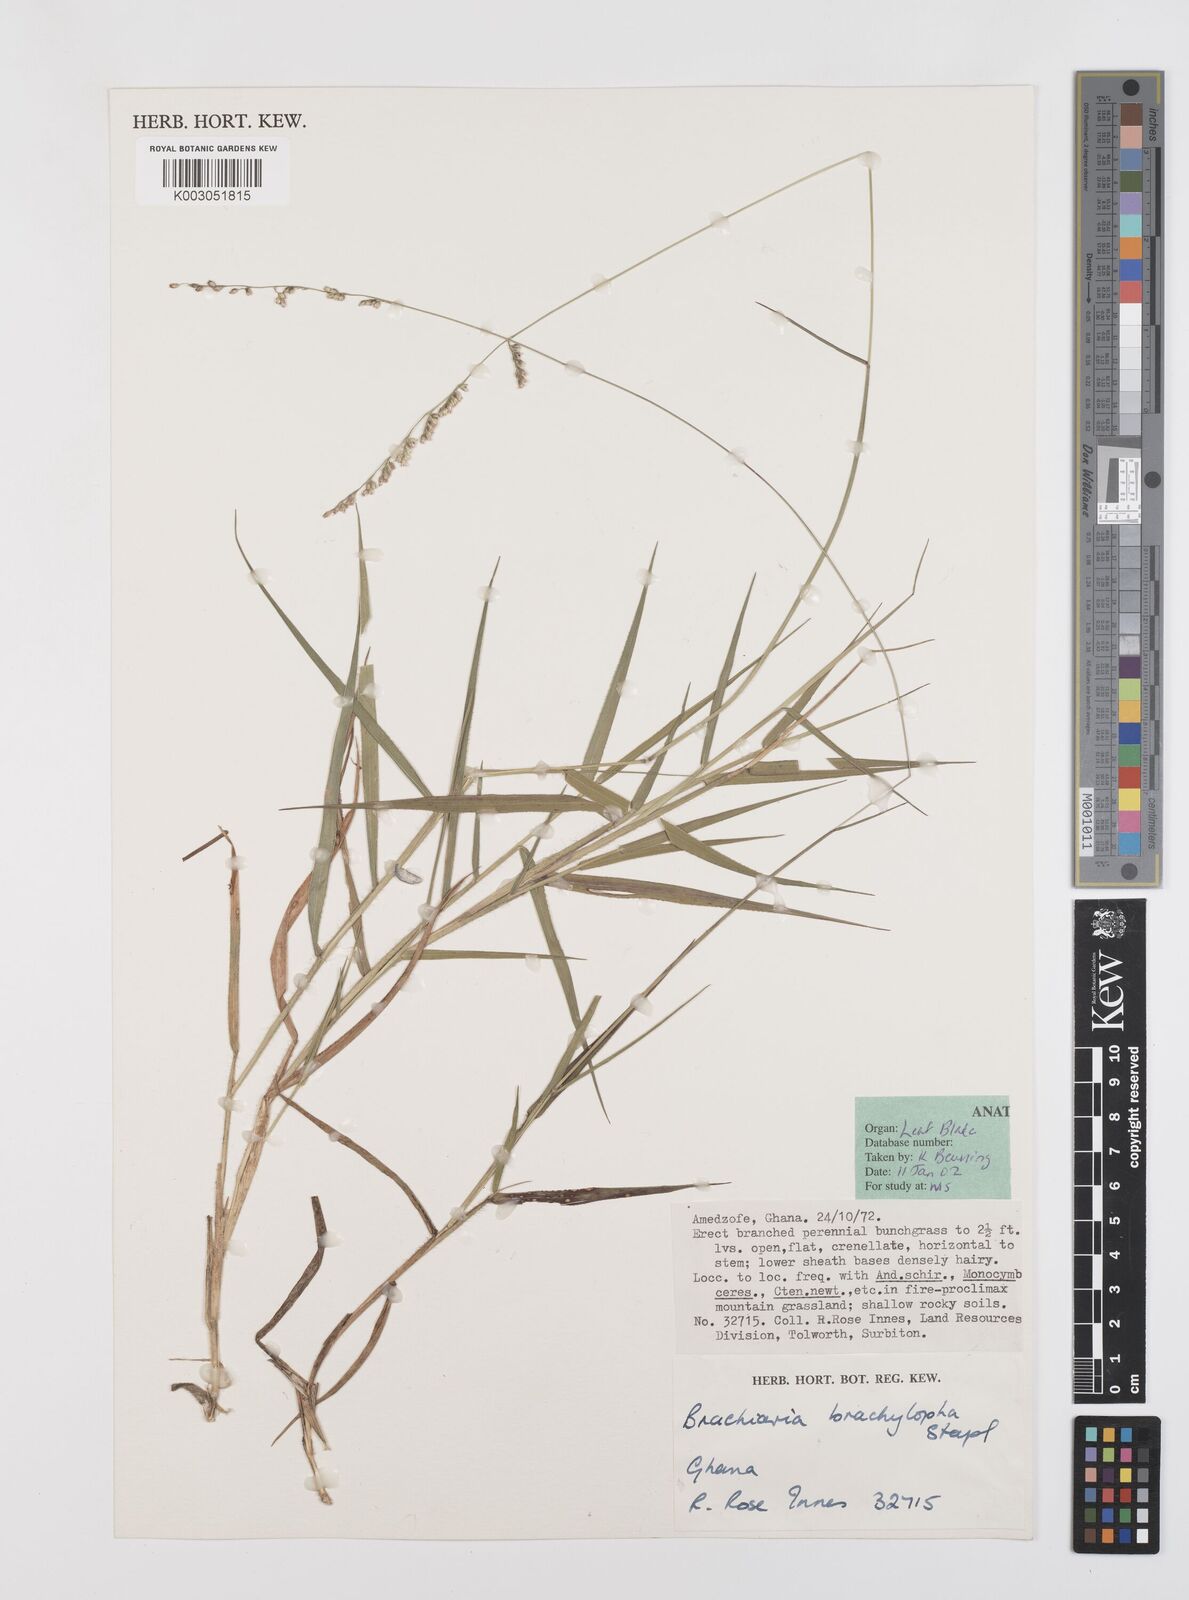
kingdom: Plantae
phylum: Tracheophyta
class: Liliopsida
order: Poales
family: Poaceae
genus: Urochloa
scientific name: Urochloa serrata
